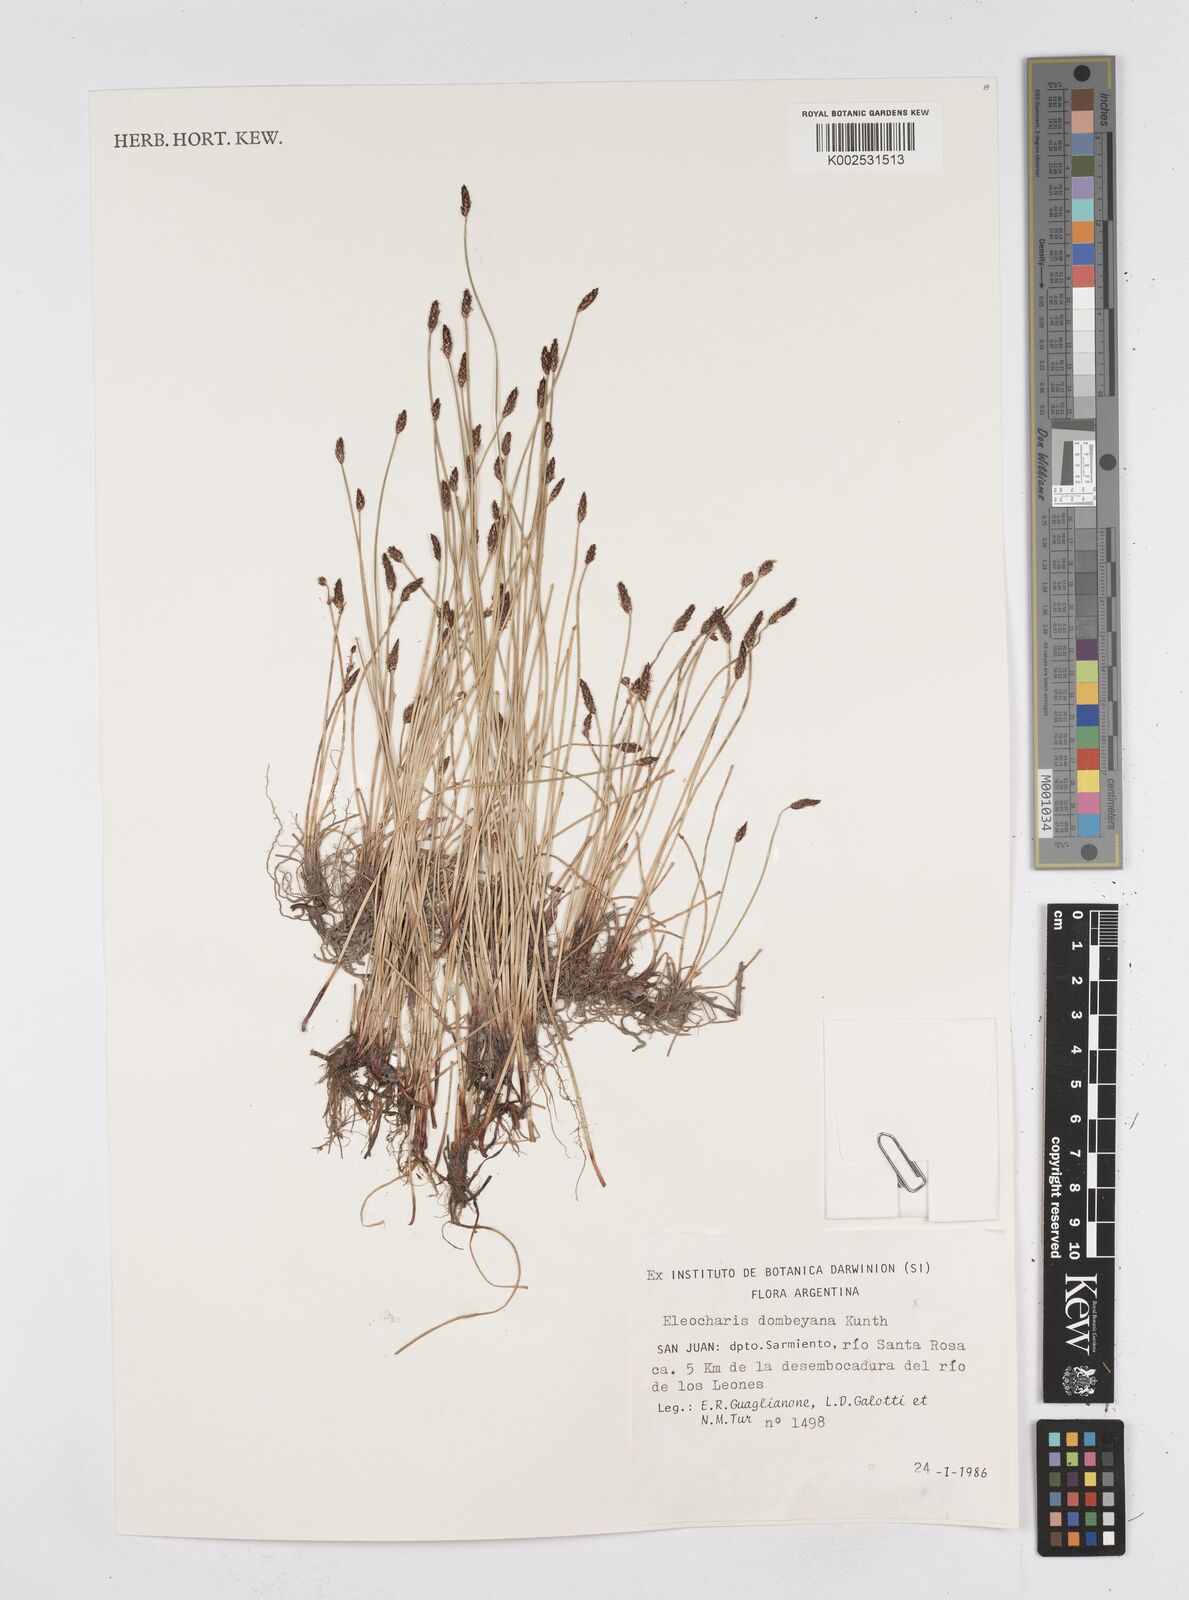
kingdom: Plantae
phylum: Tracheophyta
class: Liliopsida
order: Poales
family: Cyperaceae
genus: Eleocharis
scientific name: Eleocharis dombeyana
